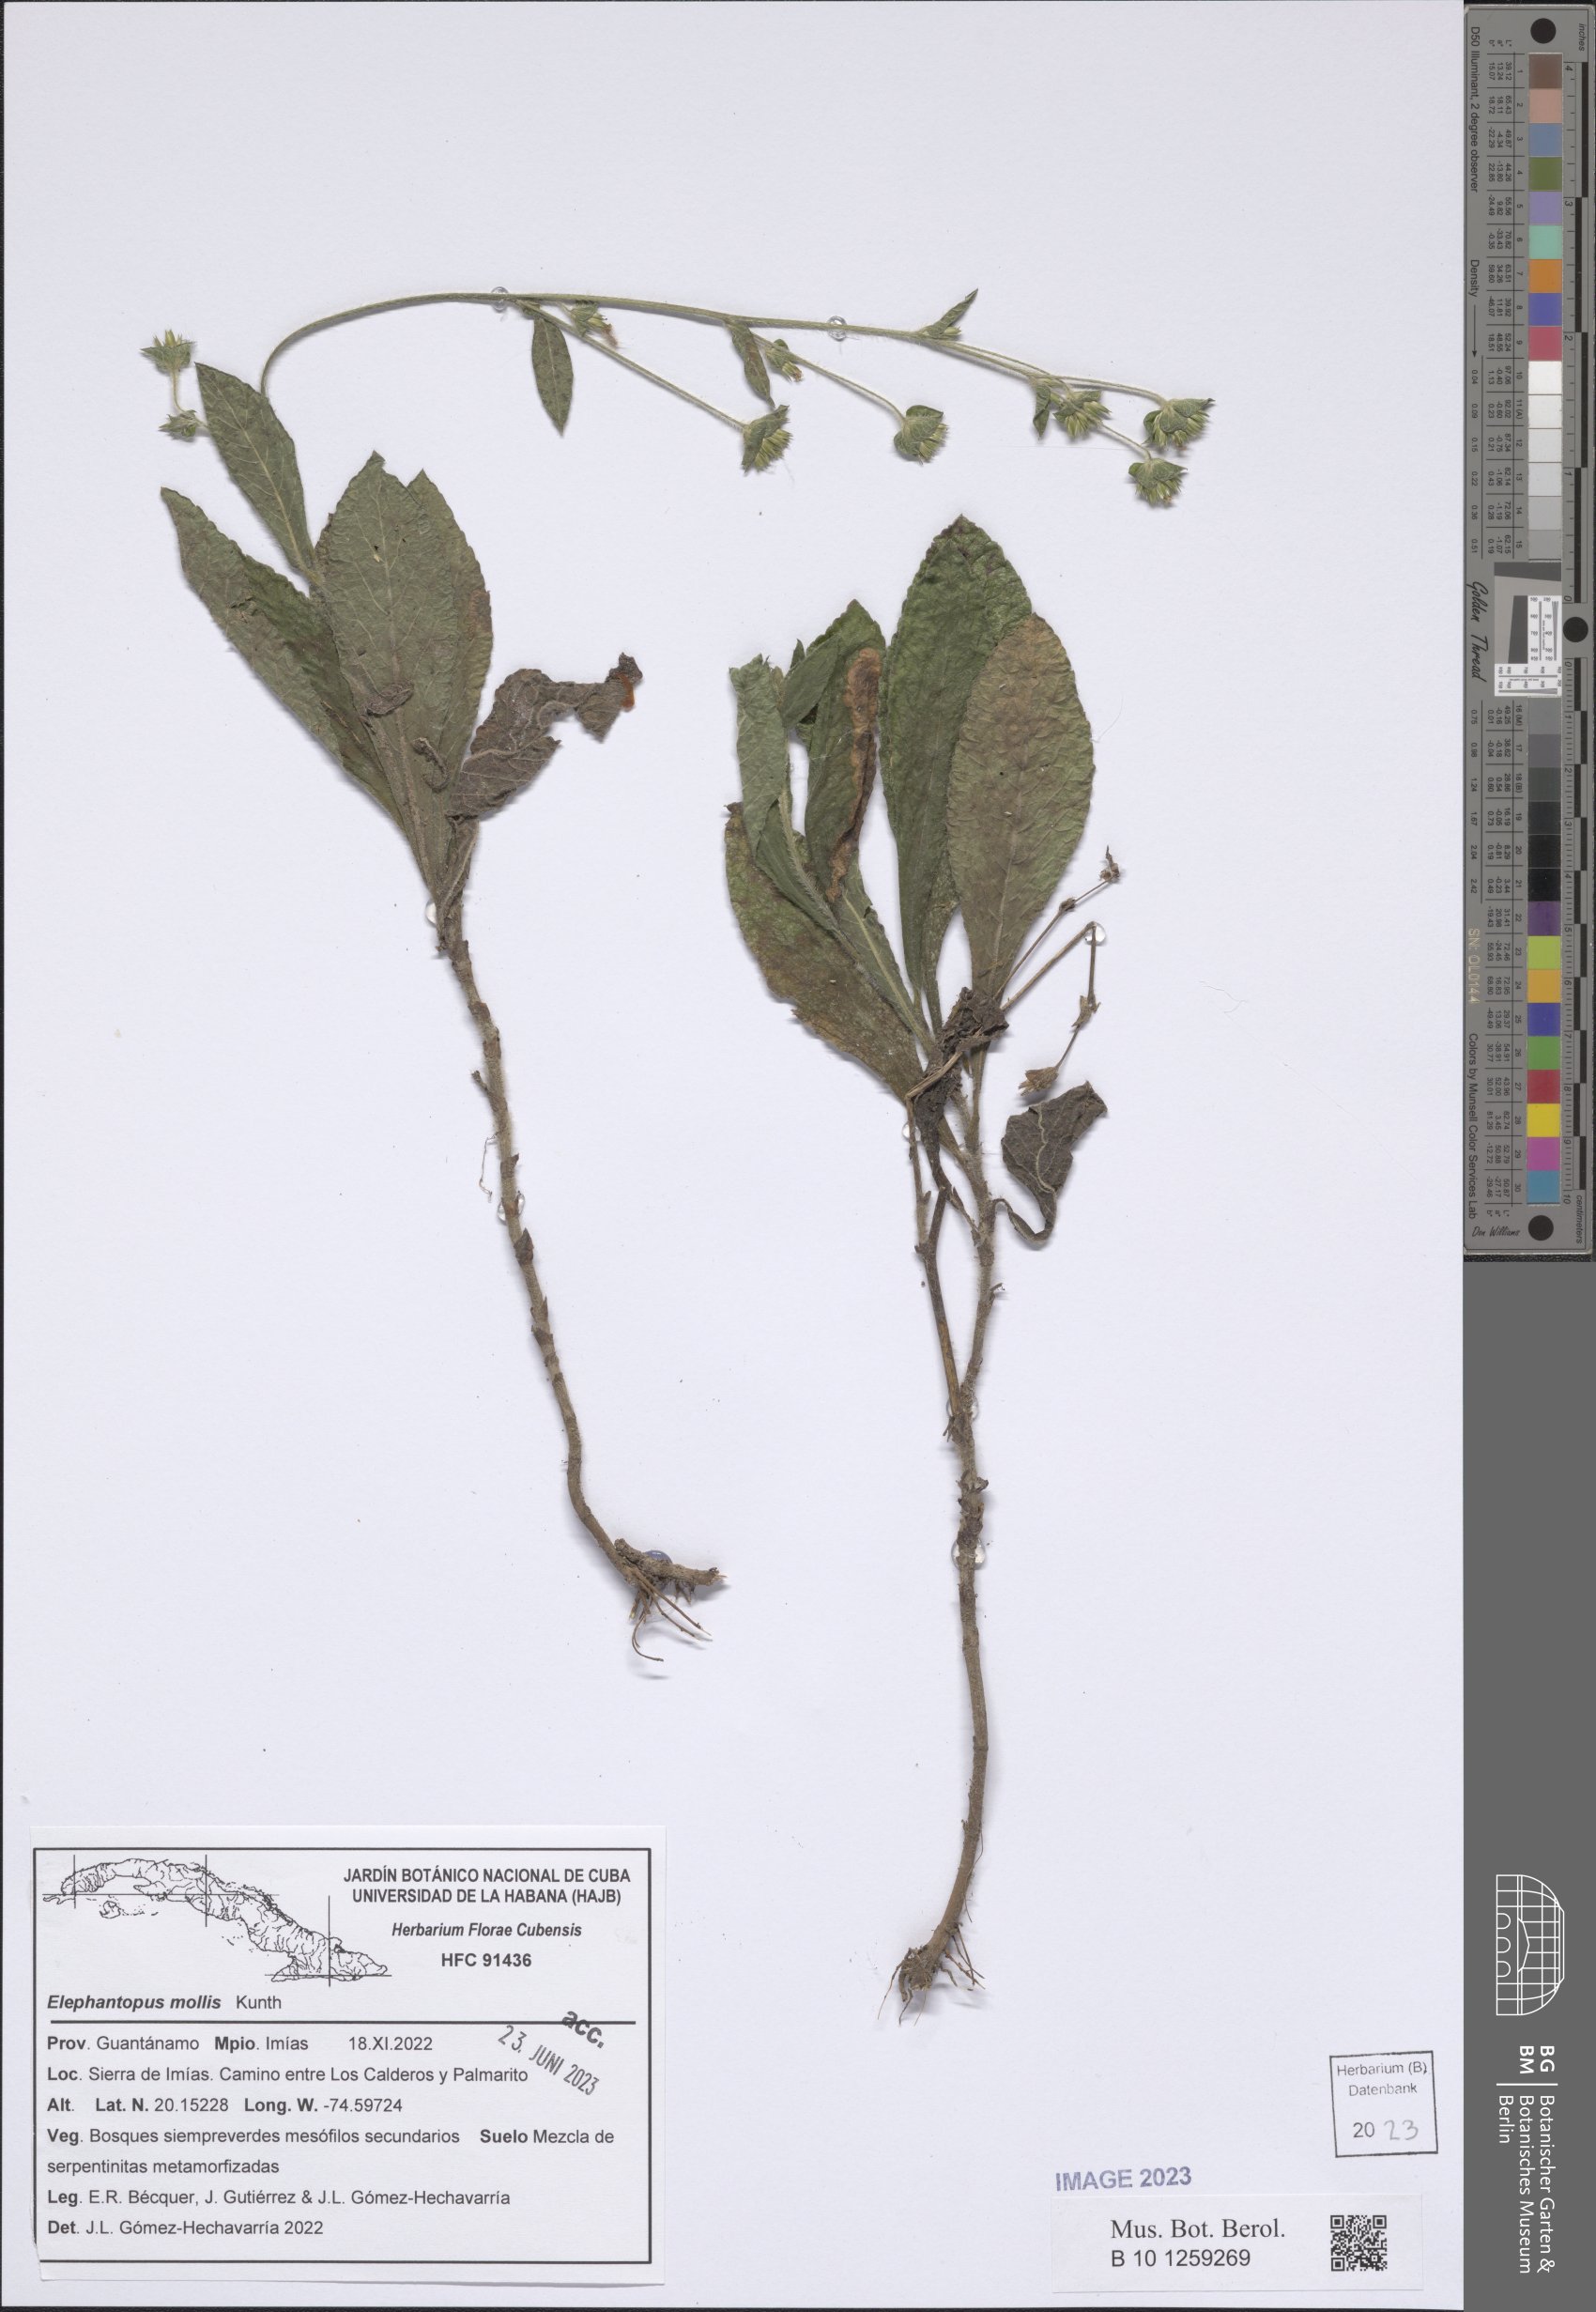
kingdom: Plantae
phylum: Tracheophyta
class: Magnoliopsida
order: Asterales
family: Asteraceae
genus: Elephantopus
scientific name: Elephantopus mollis
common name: Soft elephantsfoot
